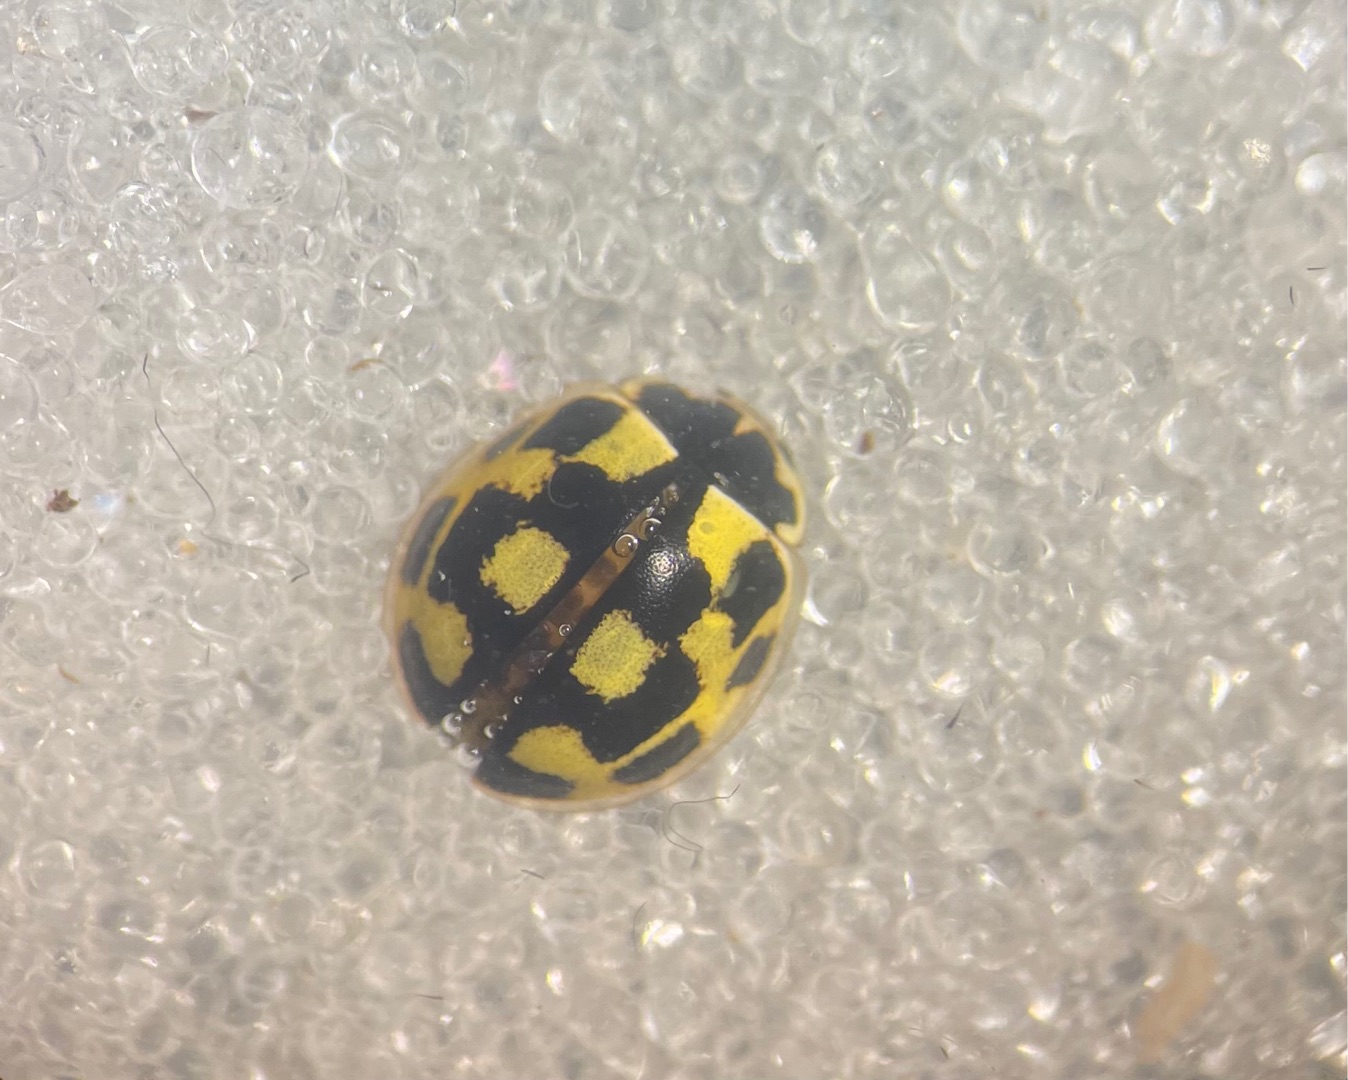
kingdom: Animalia
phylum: Arthropoda
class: Insecta
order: Coleoptera
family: Coccinellidae
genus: Propylaea
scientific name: Propylaea quatuordecimpunctata
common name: Skakbræt
